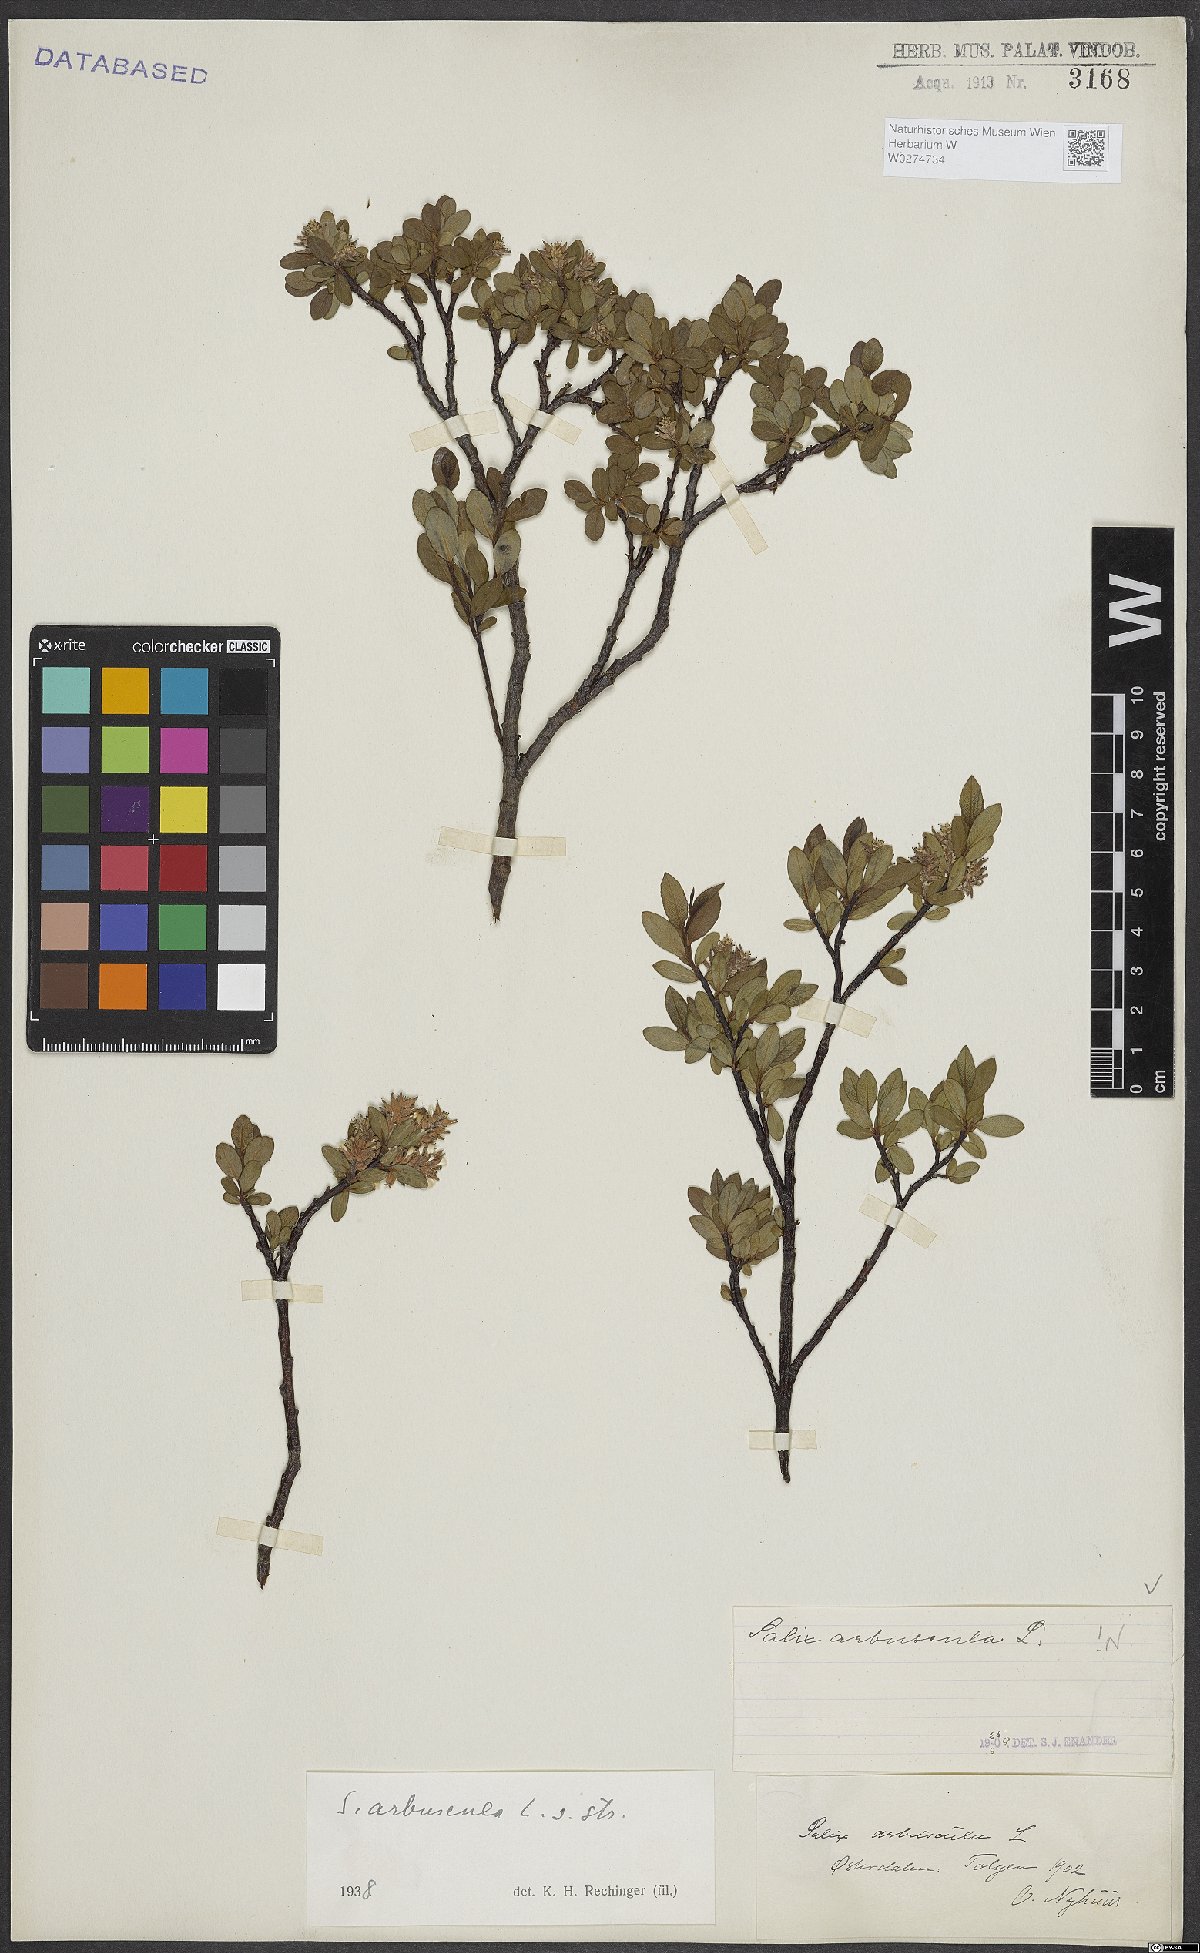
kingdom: Plantae
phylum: Tracheophyta
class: Magnoliopsida
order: Malpighiales
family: Salicaceae
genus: Salix
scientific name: Salix arbuscula
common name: Mountain willow
